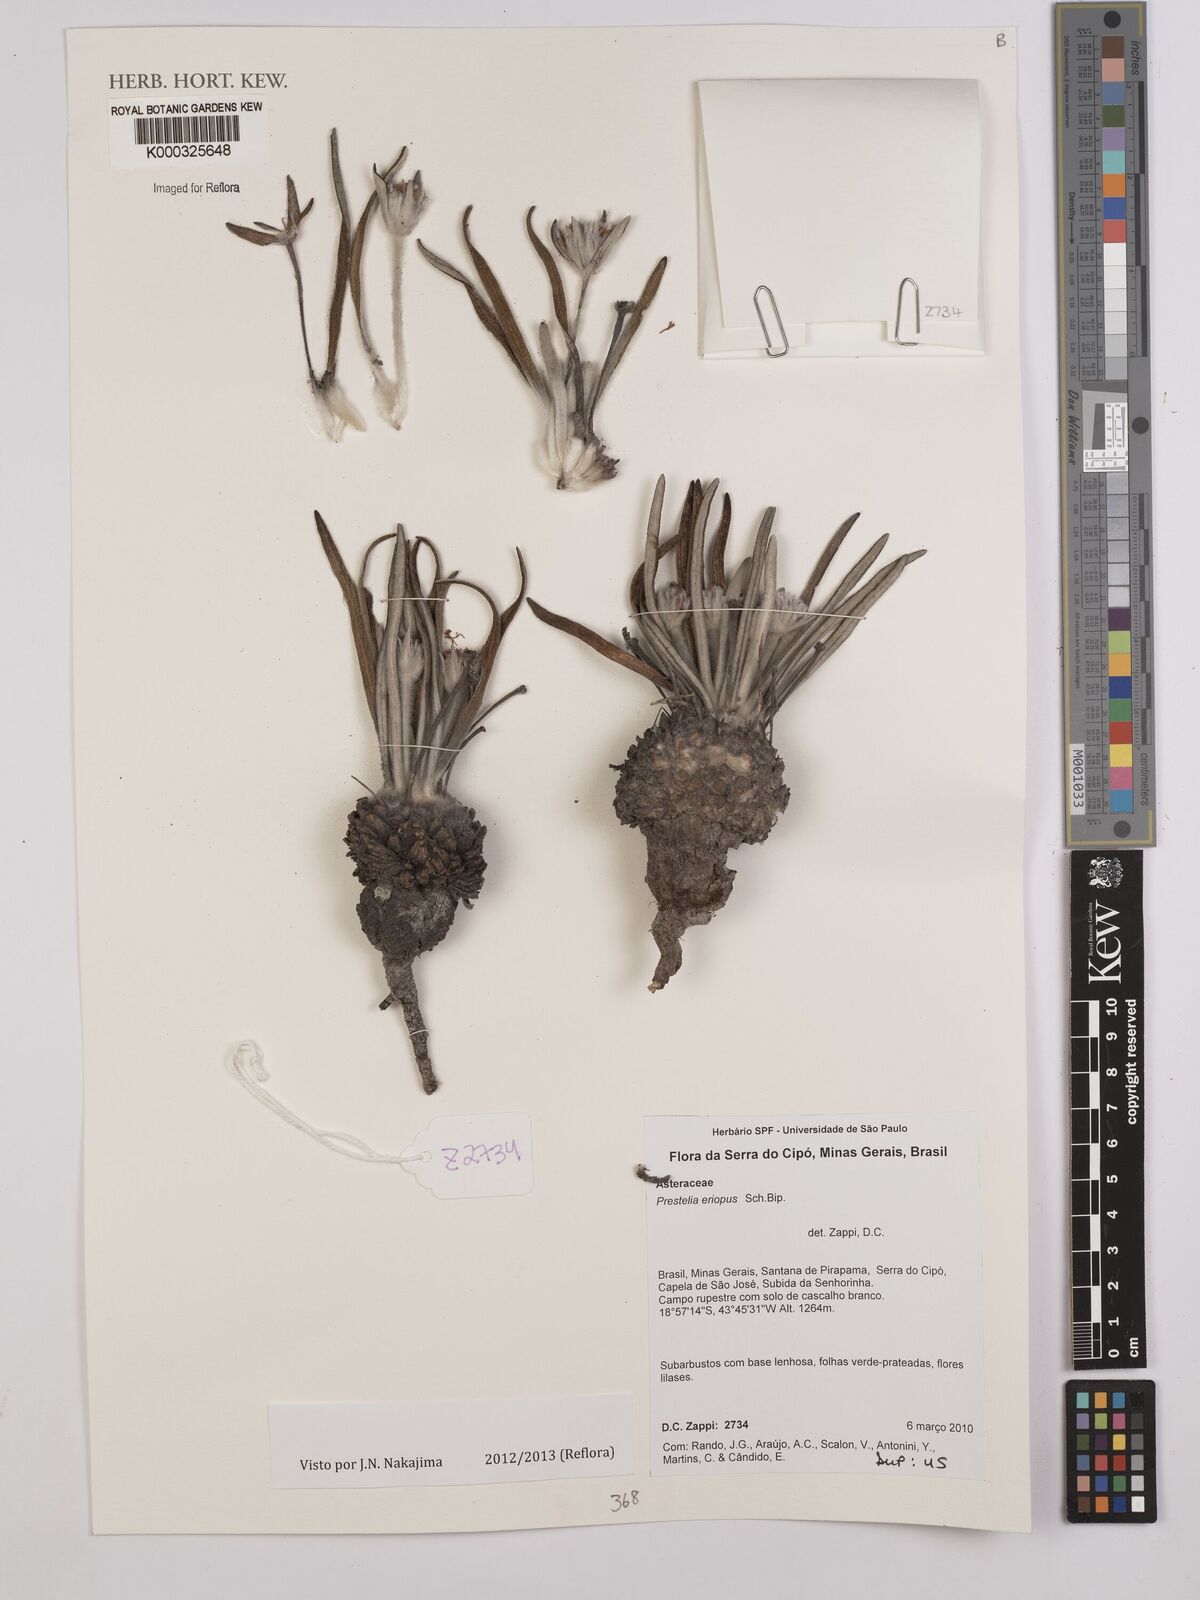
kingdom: Plantae
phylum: Tracheophyta
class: Magnoliopsida
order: Asterales
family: Asteraceae
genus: Prestelia
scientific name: Prestelia eriopus
